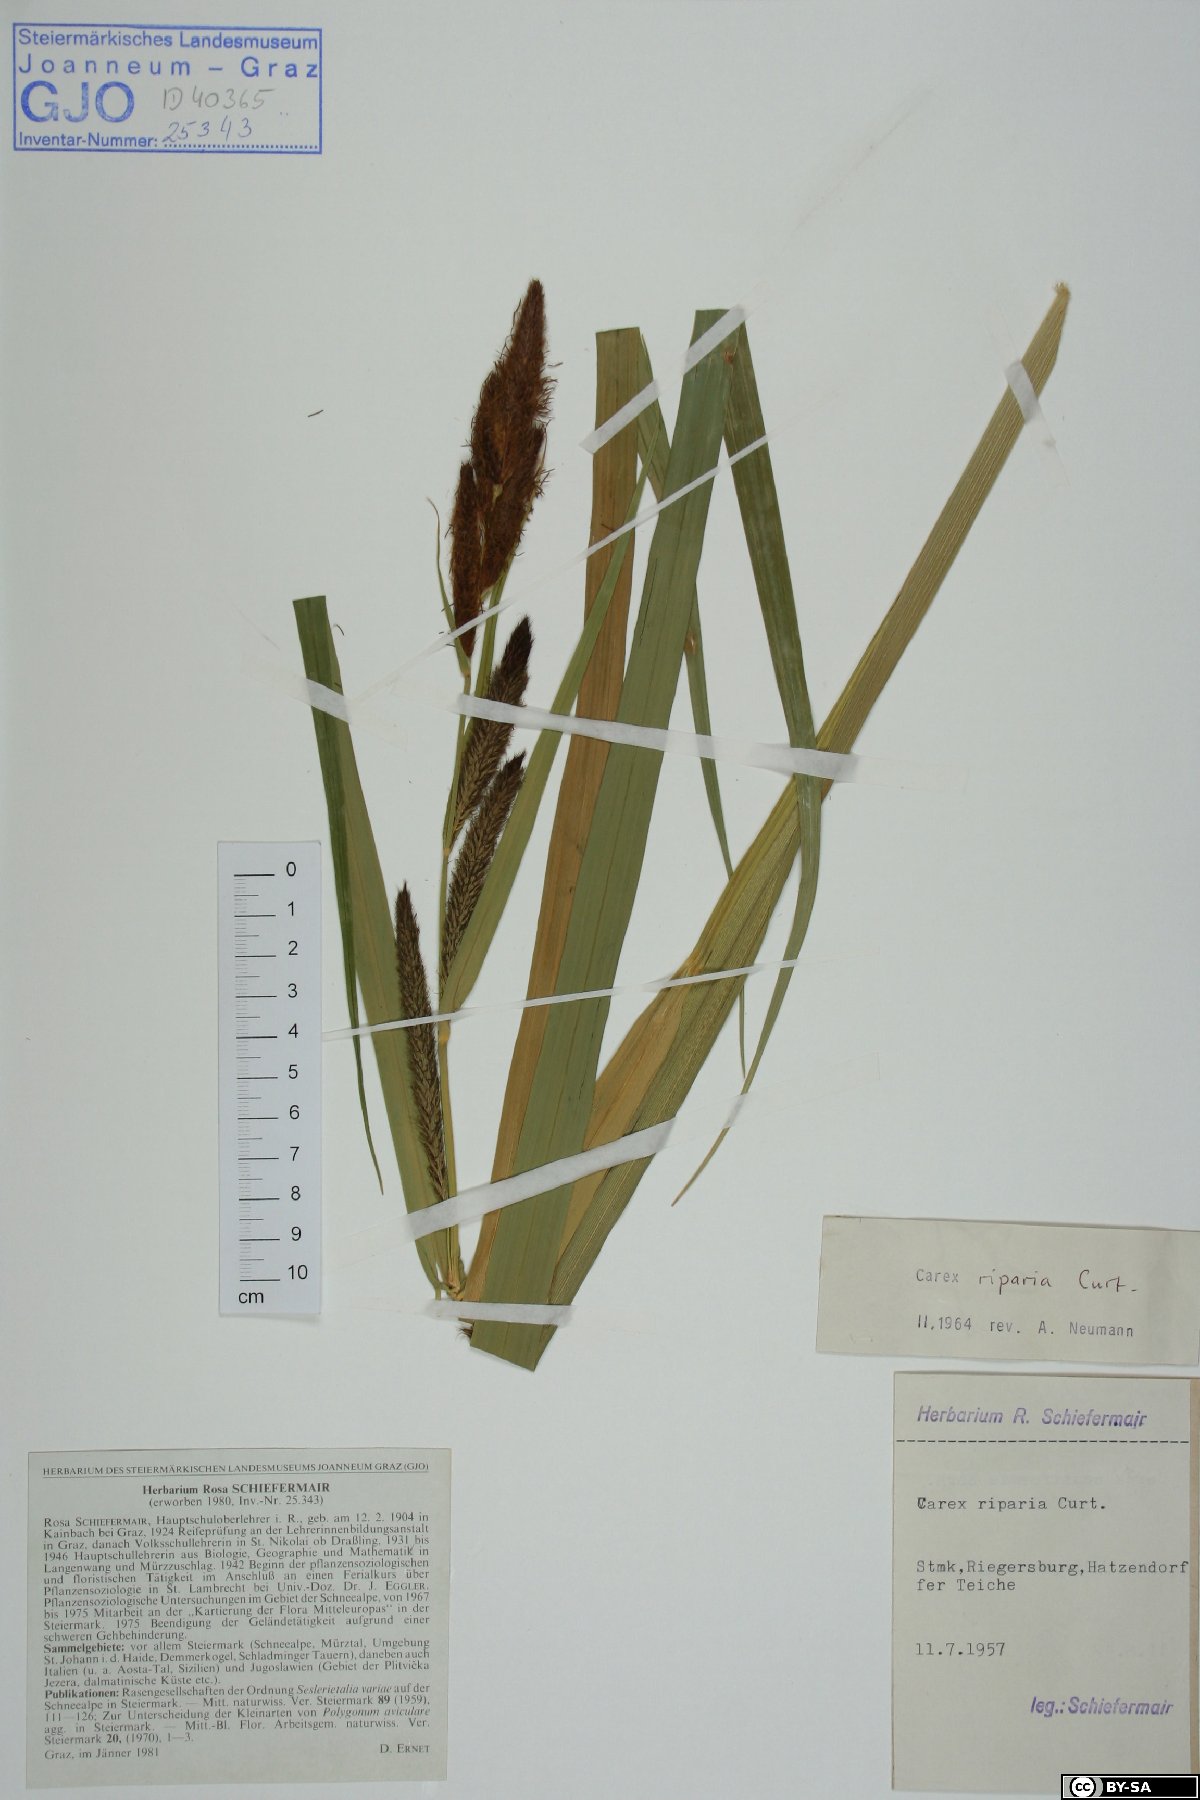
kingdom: Plantae
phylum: Tracheophyta
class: Liliopsida
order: Poales
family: Cyperaceae
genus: Carex
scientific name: Carex riparia
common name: Greater pond-sedge
